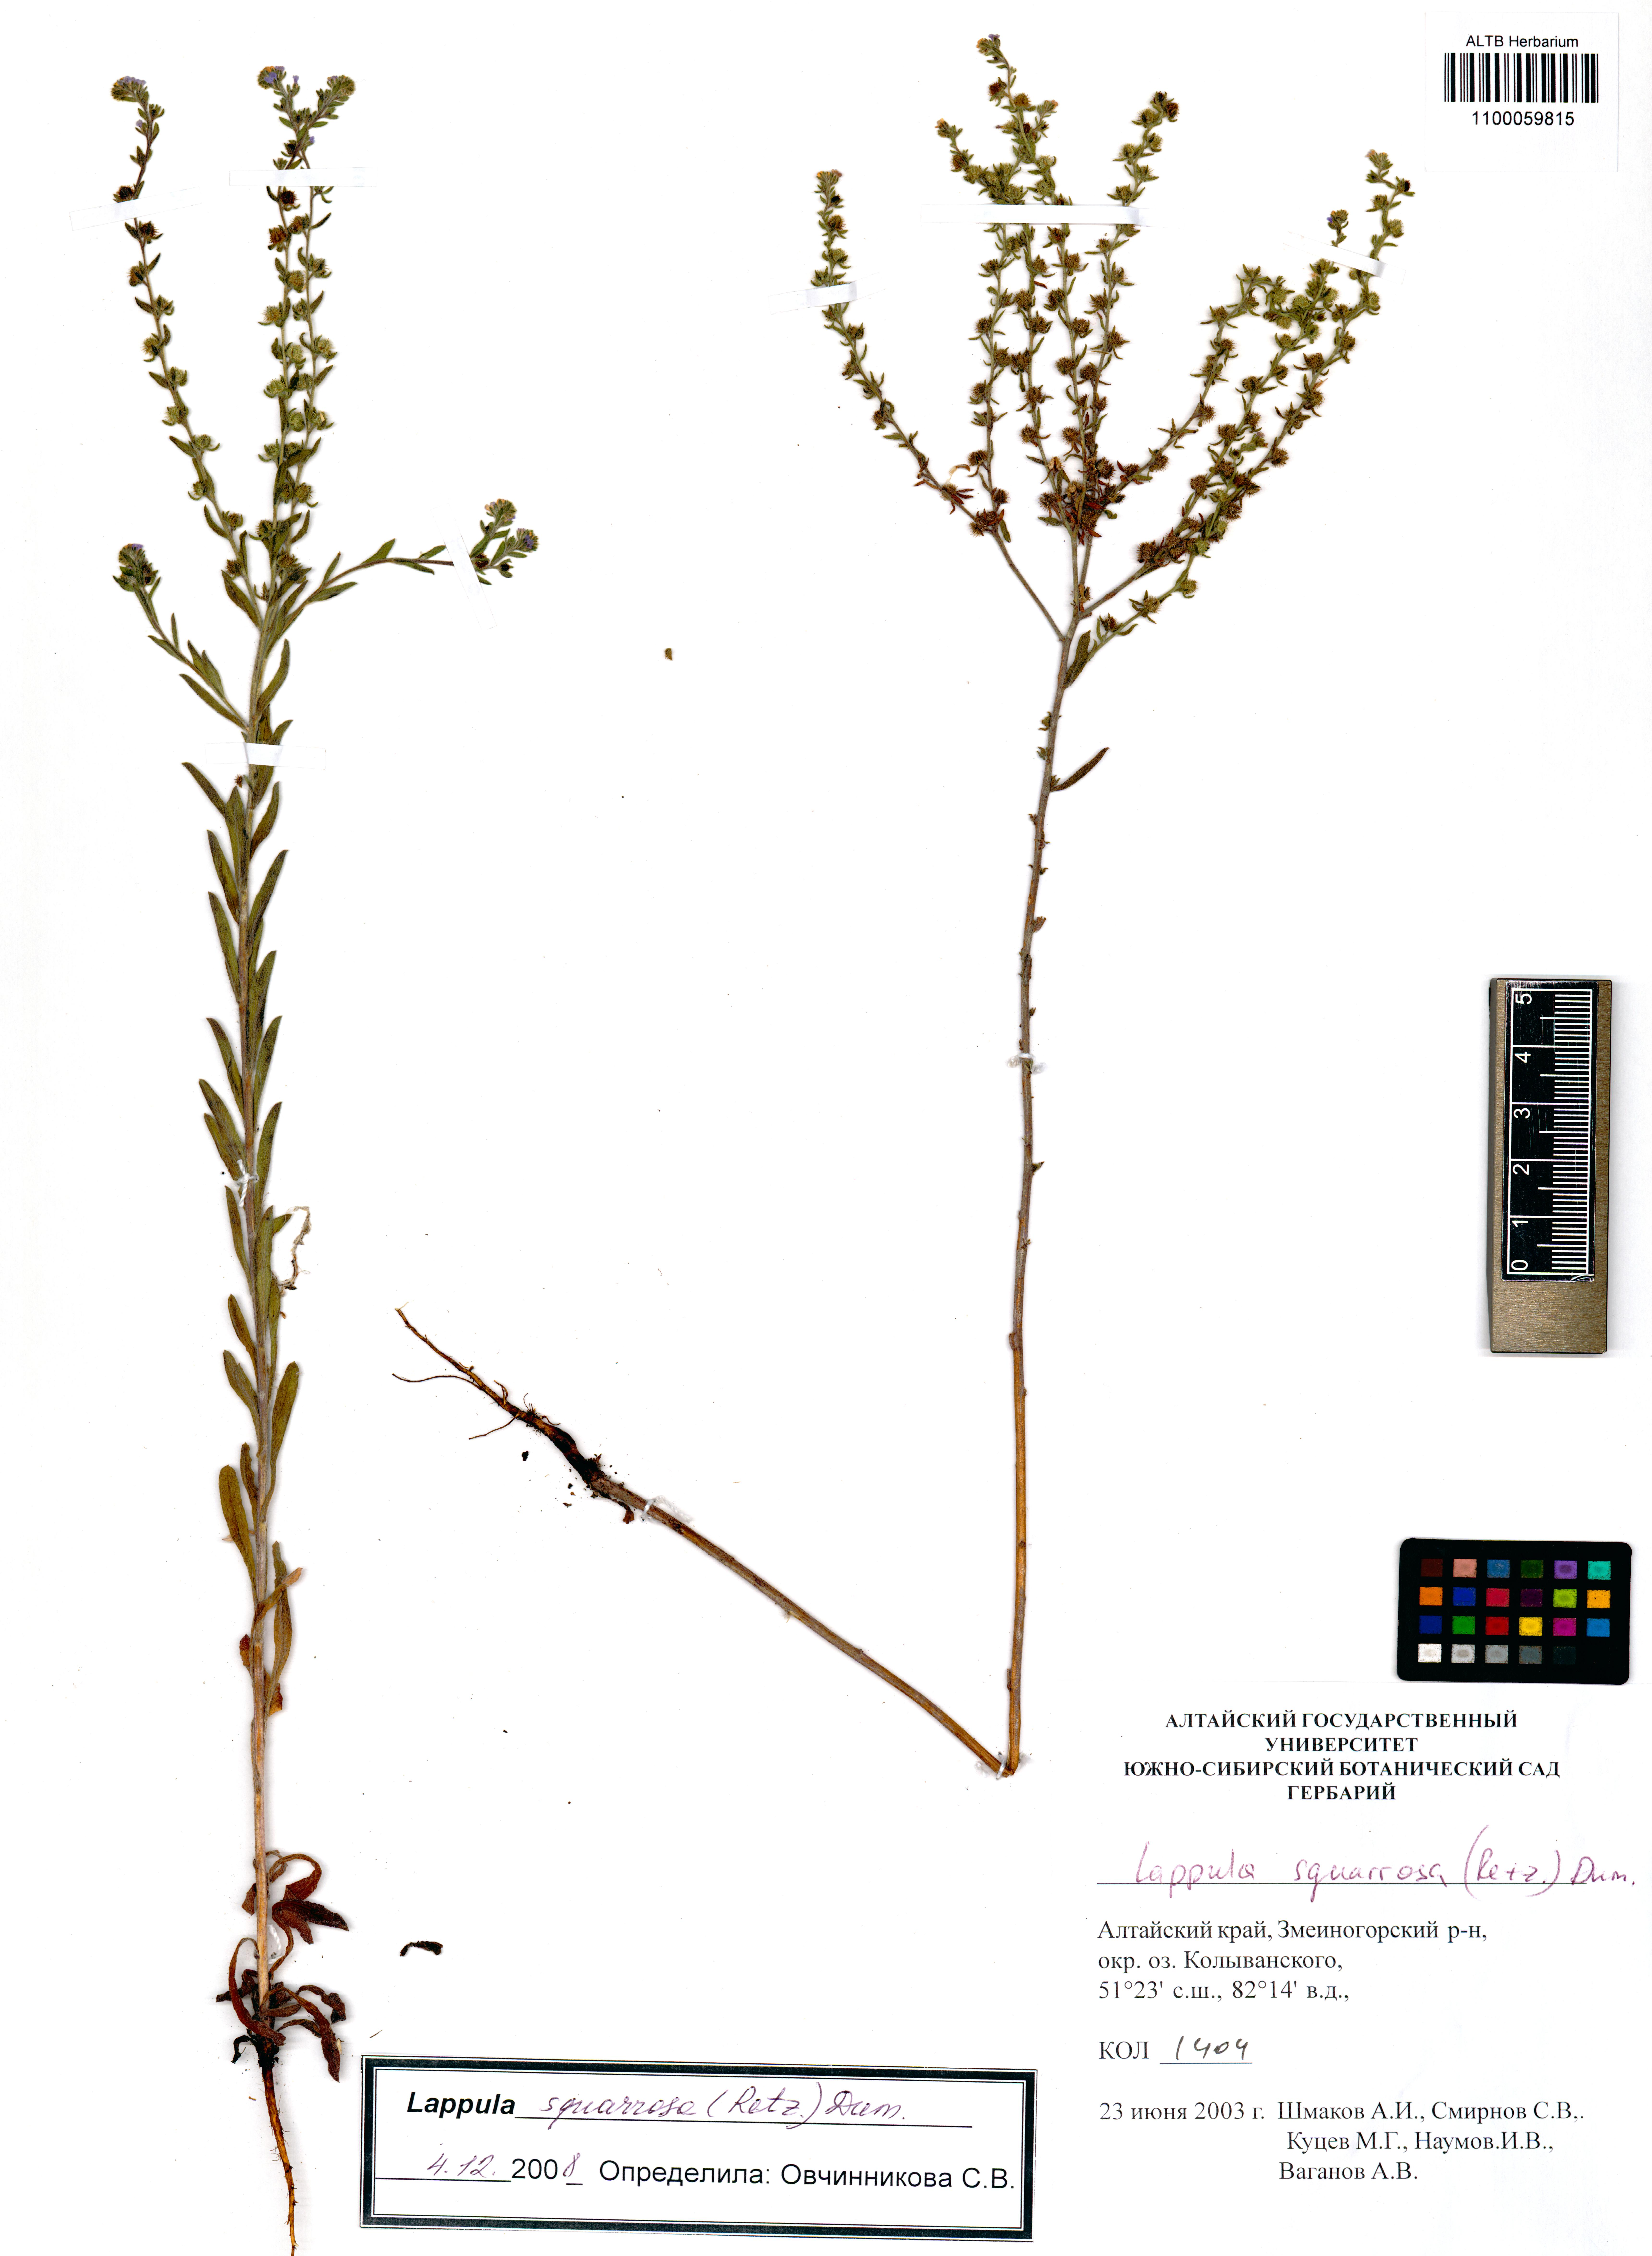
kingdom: Plantae
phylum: Tracheophyta
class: Magnoliopsida
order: Boraginales
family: Boraginaceae
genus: Lappula
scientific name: Lappula squarrosa
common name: European stickseed
